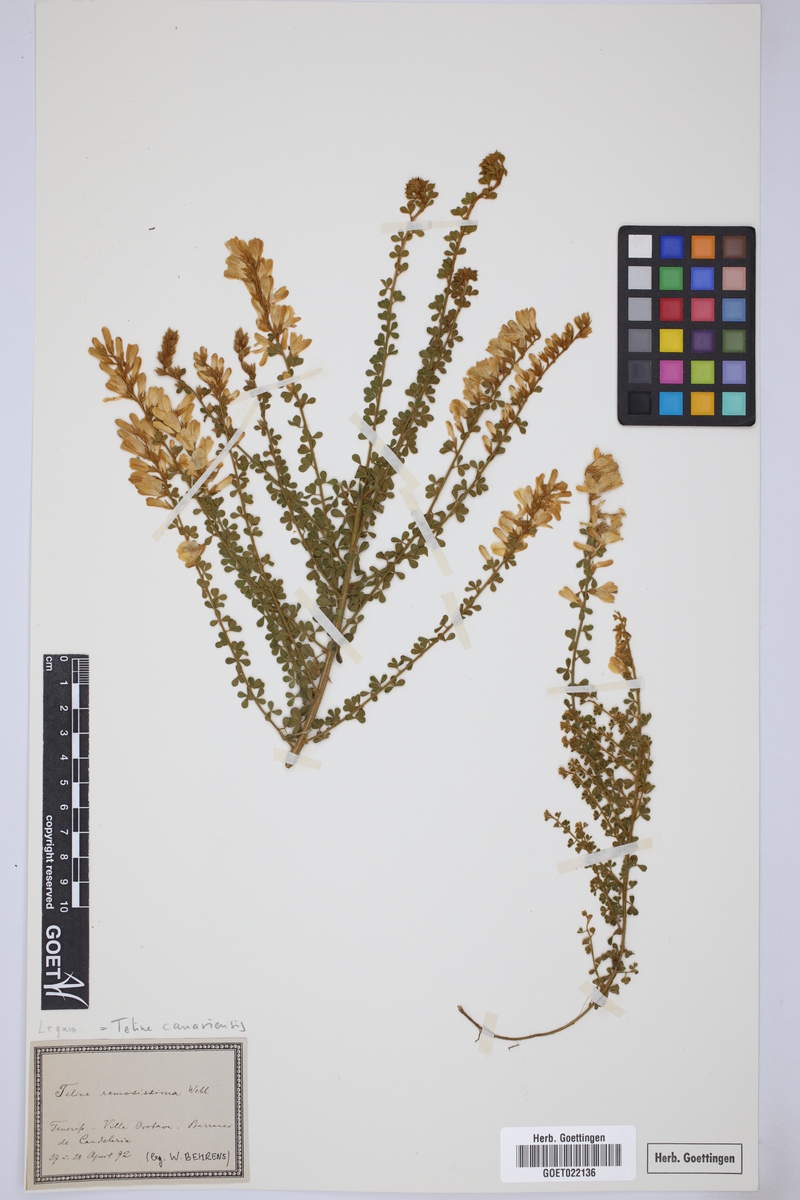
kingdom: Plantae
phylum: Tracheophyta
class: Magnoliopsida
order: Fabales
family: Fabaceae
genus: Genista
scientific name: Genista canariensis
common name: Canary broom
